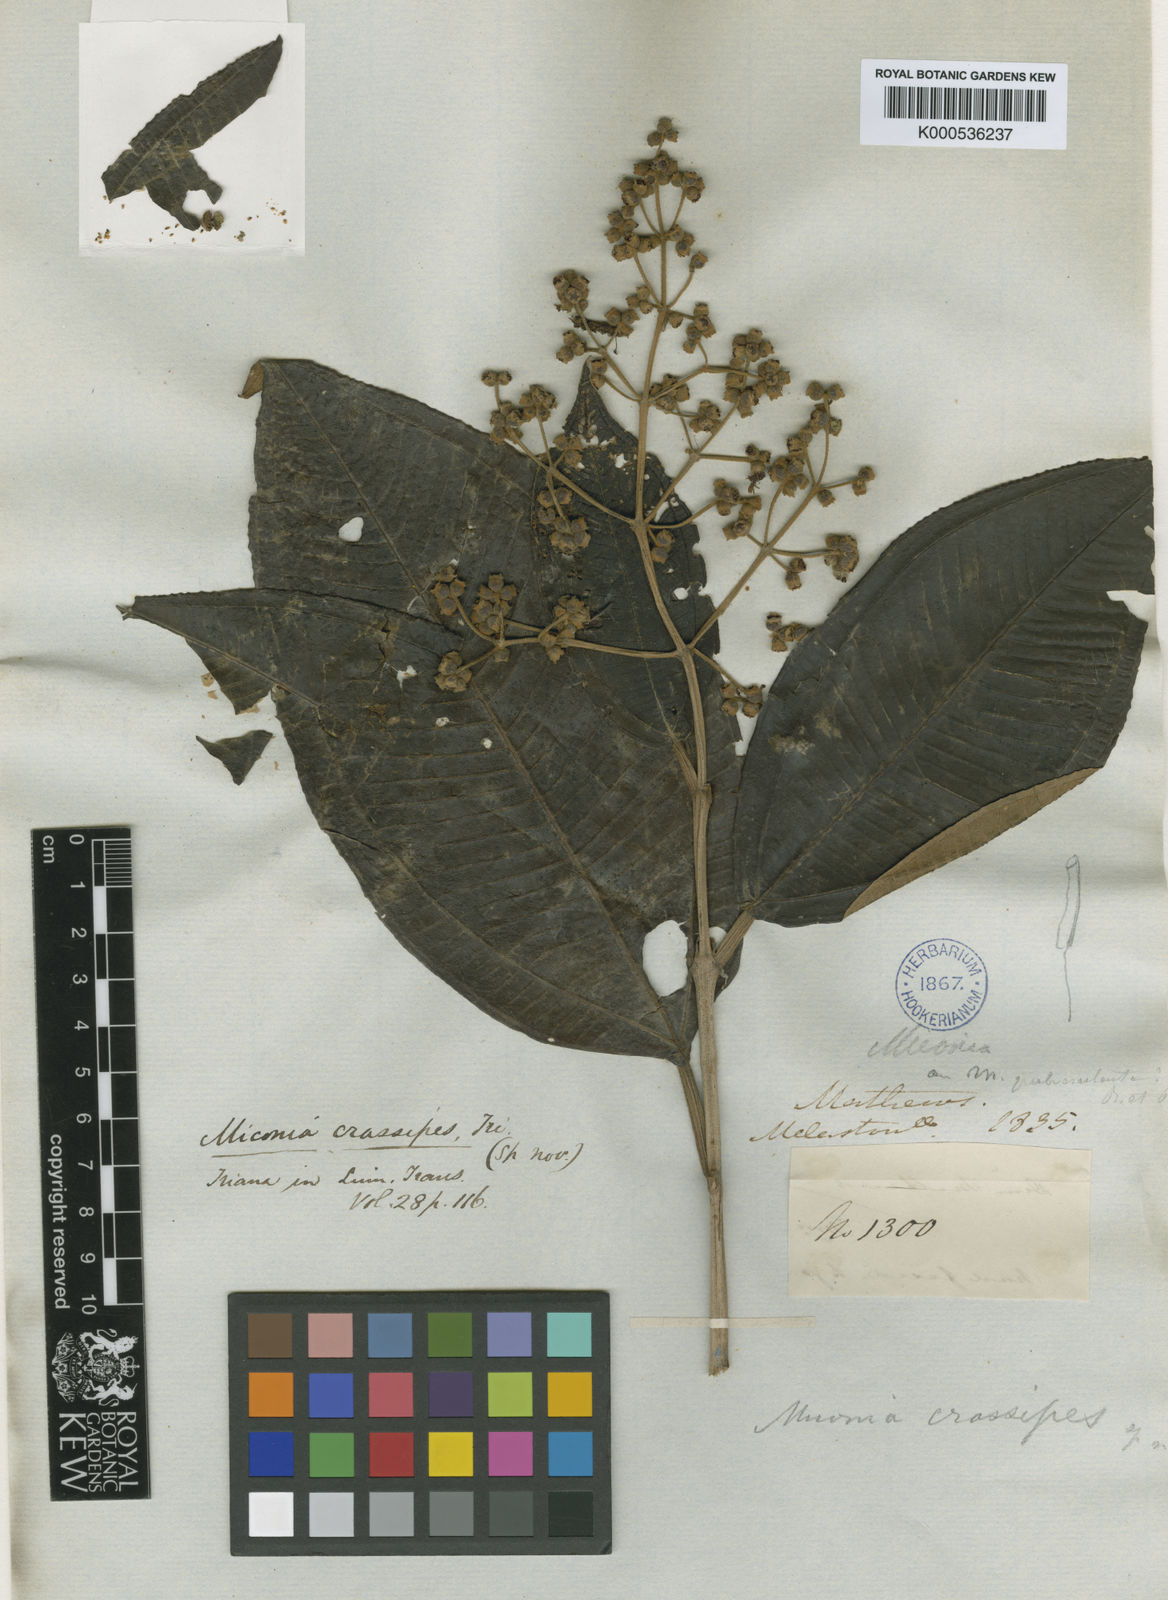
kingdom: Plantae
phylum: Tracheophyta
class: Magnoliopsida
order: Myrtales
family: Melastomataceae
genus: Miconia
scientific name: Miconia crassipes
